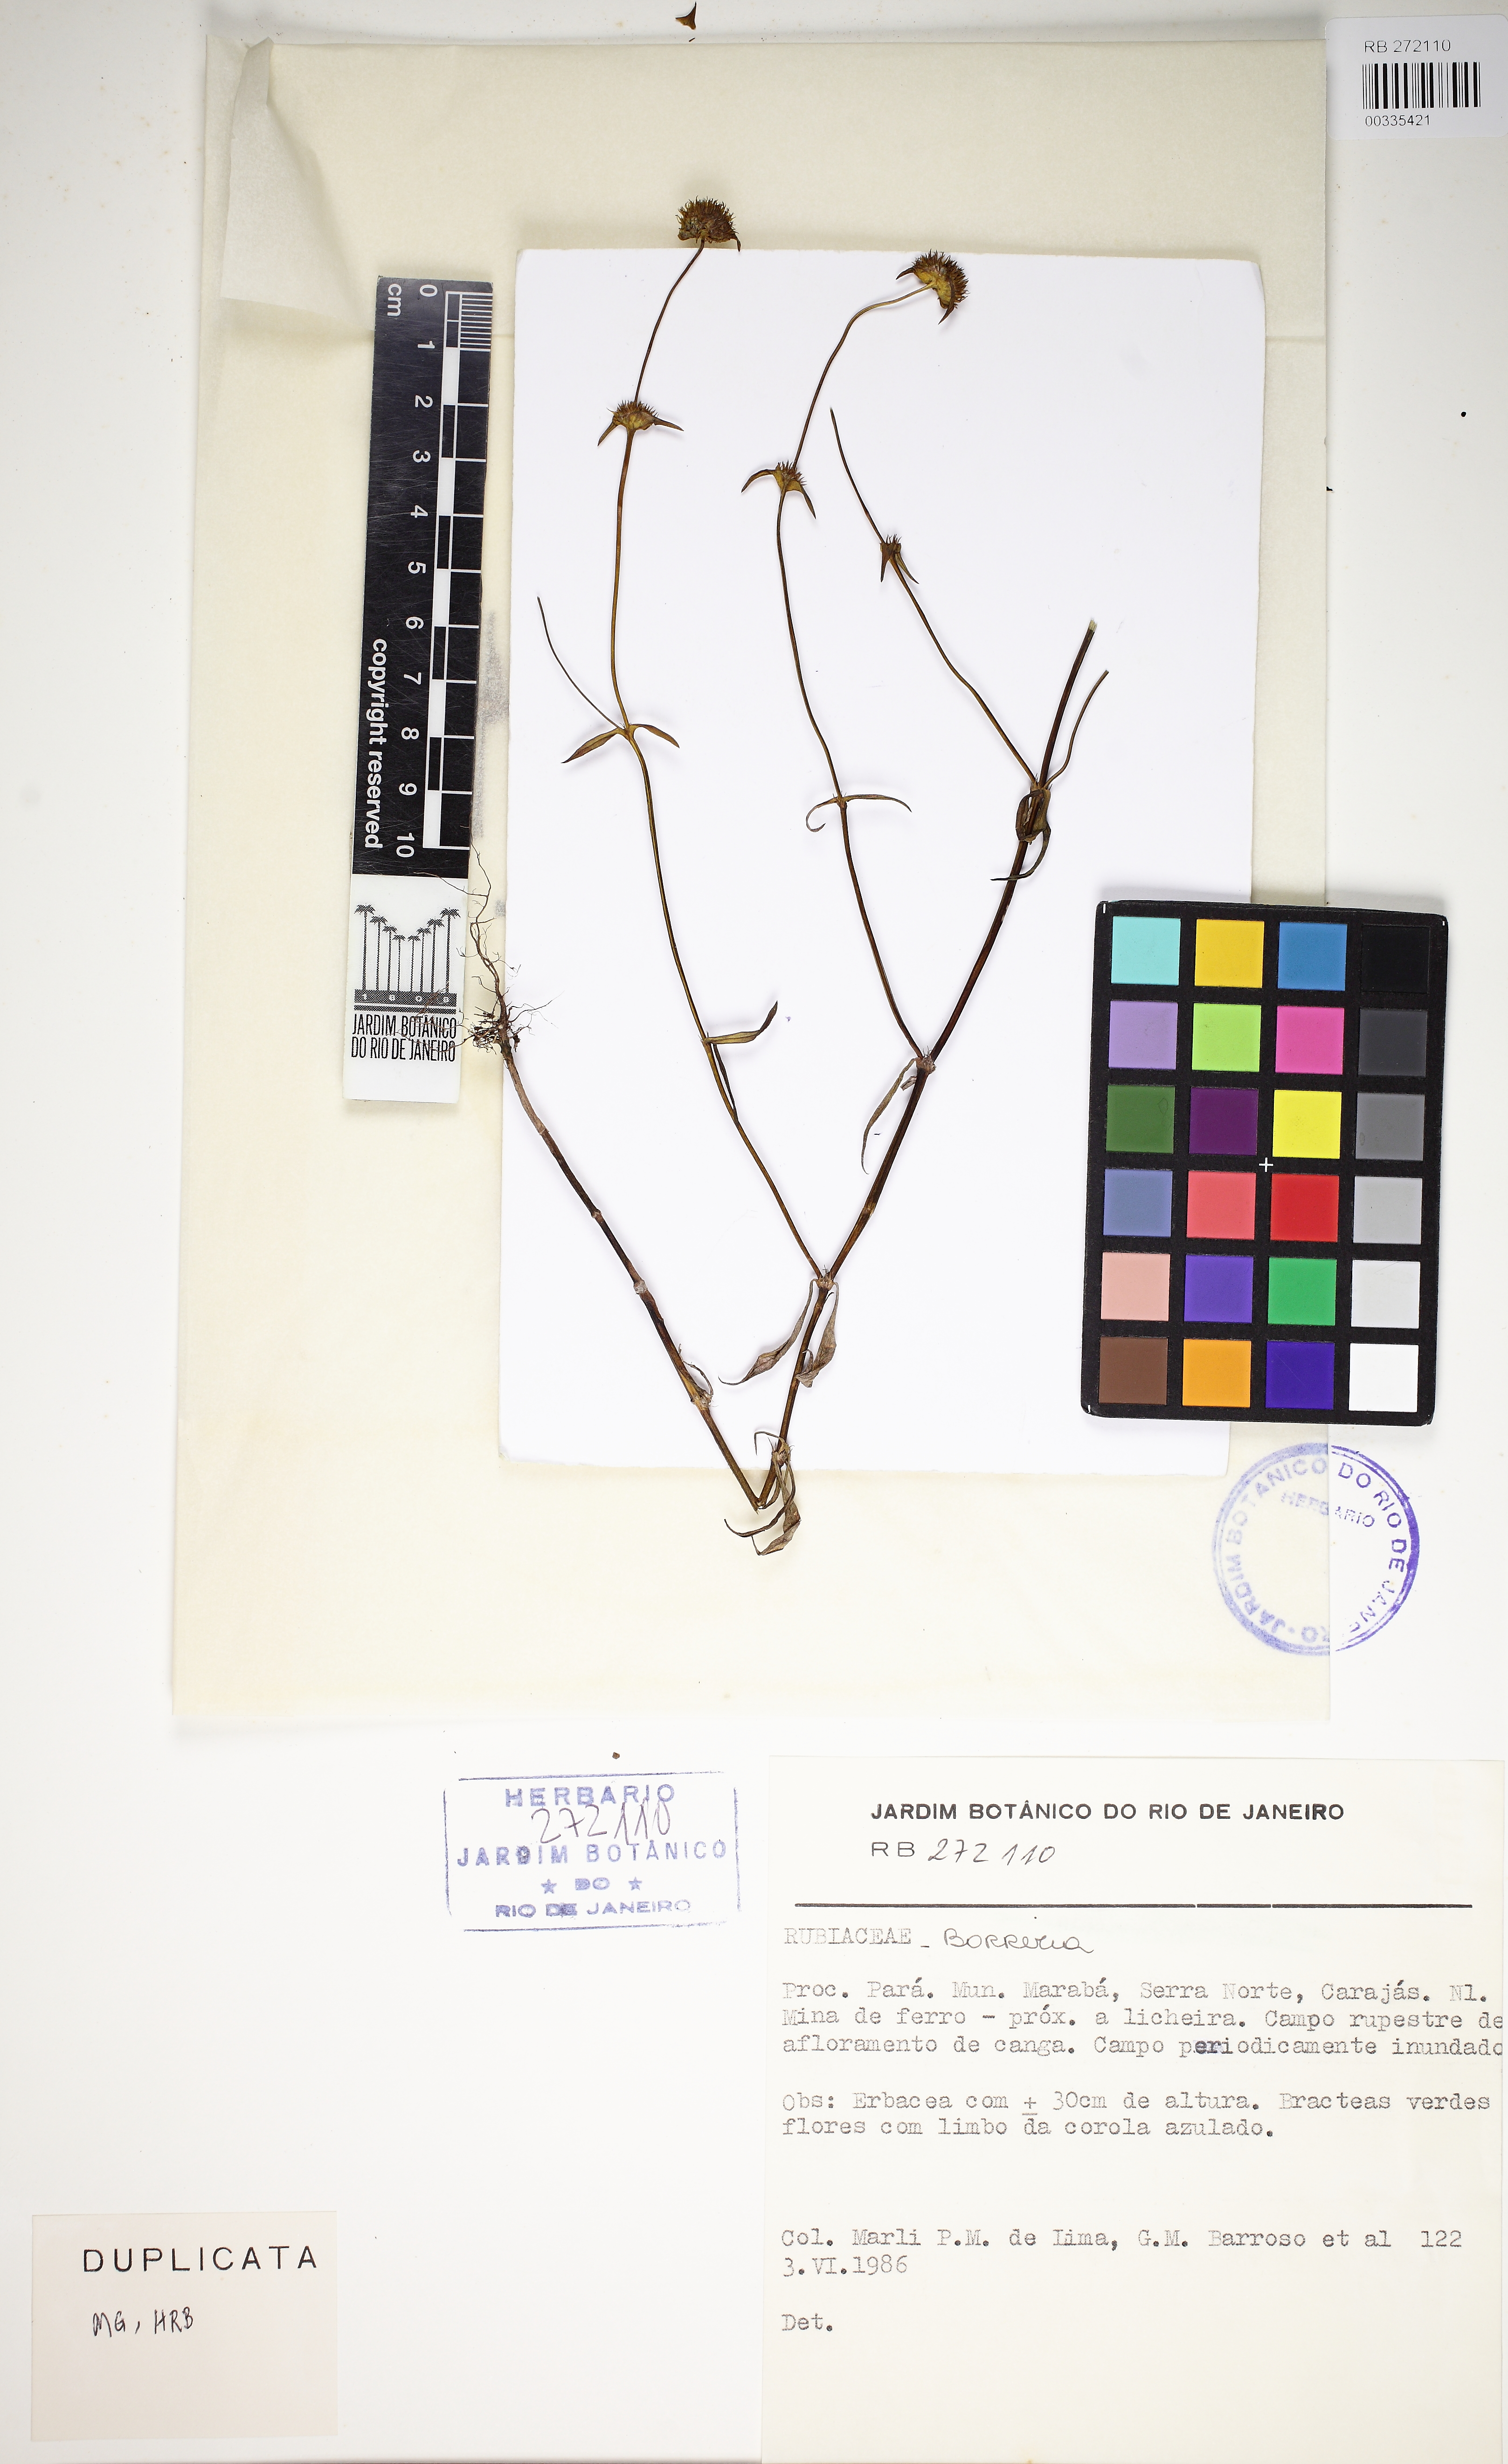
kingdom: Plantae
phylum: Tracheophyta
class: Magnoliopsida
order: Gentianales
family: Rubiaceae
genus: Spermacoce
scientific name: Spermacoce semiamplexicaulis
